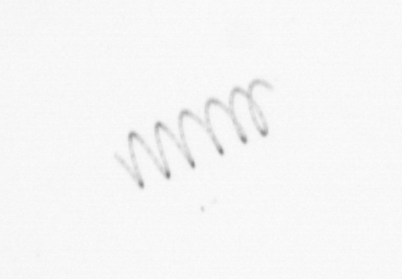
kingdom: Chromista
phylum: Ochrophyta
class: Bacillariophyceae
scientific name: Bacillariophyceae
